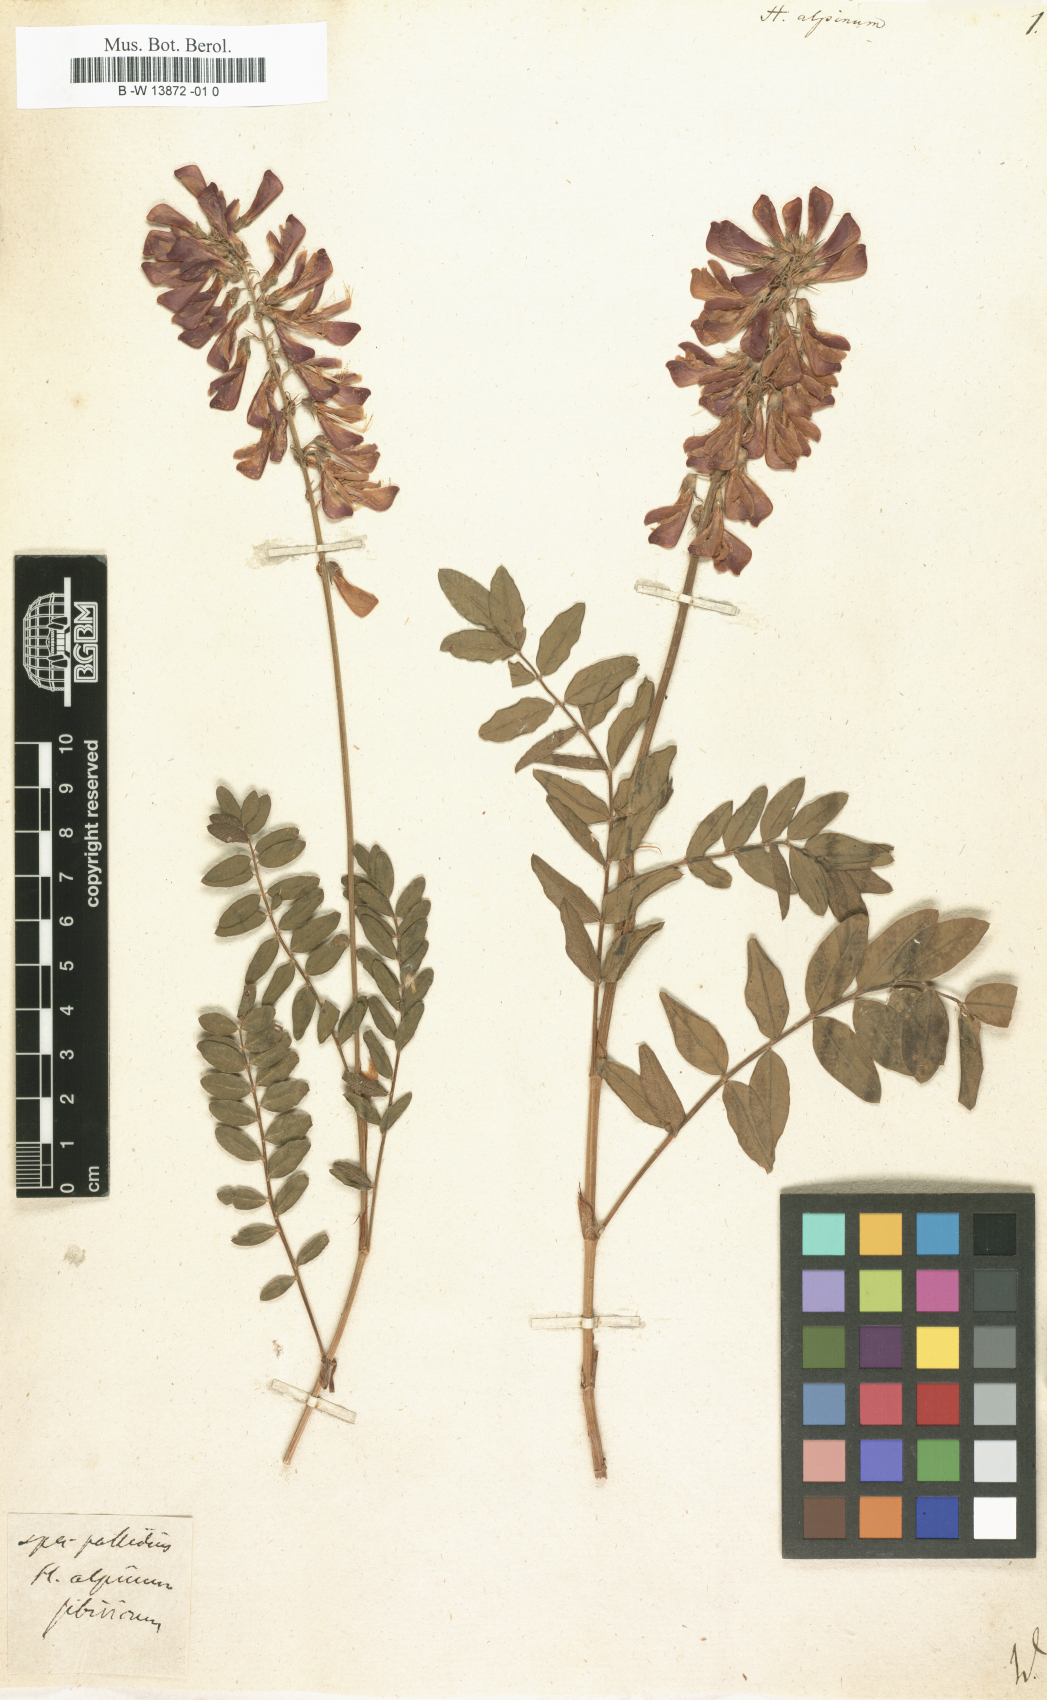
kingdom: Plantae
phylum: Tracheophyta
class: Magnoliopsida
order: Fabales
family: Fabaceae
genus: Hedysarum
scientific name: Hedysarum alpinum
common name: Alpine sweet-vetch
